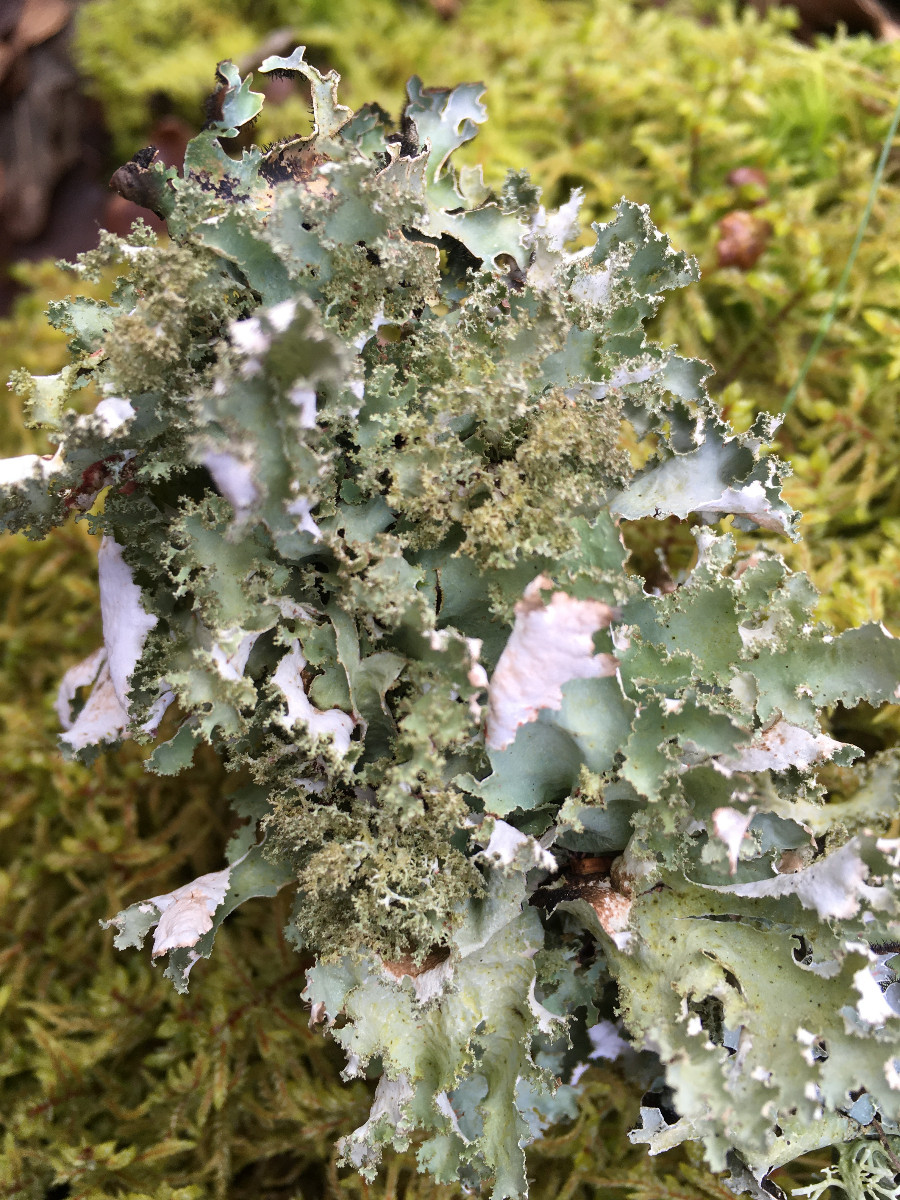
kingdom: Fungi
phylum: Ascomycota
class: Lecanoromycetes
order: Lecanorales
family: Parmeliaceae
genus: Platismatia
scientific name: Platismatia glauca
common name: blågrå papirlav
